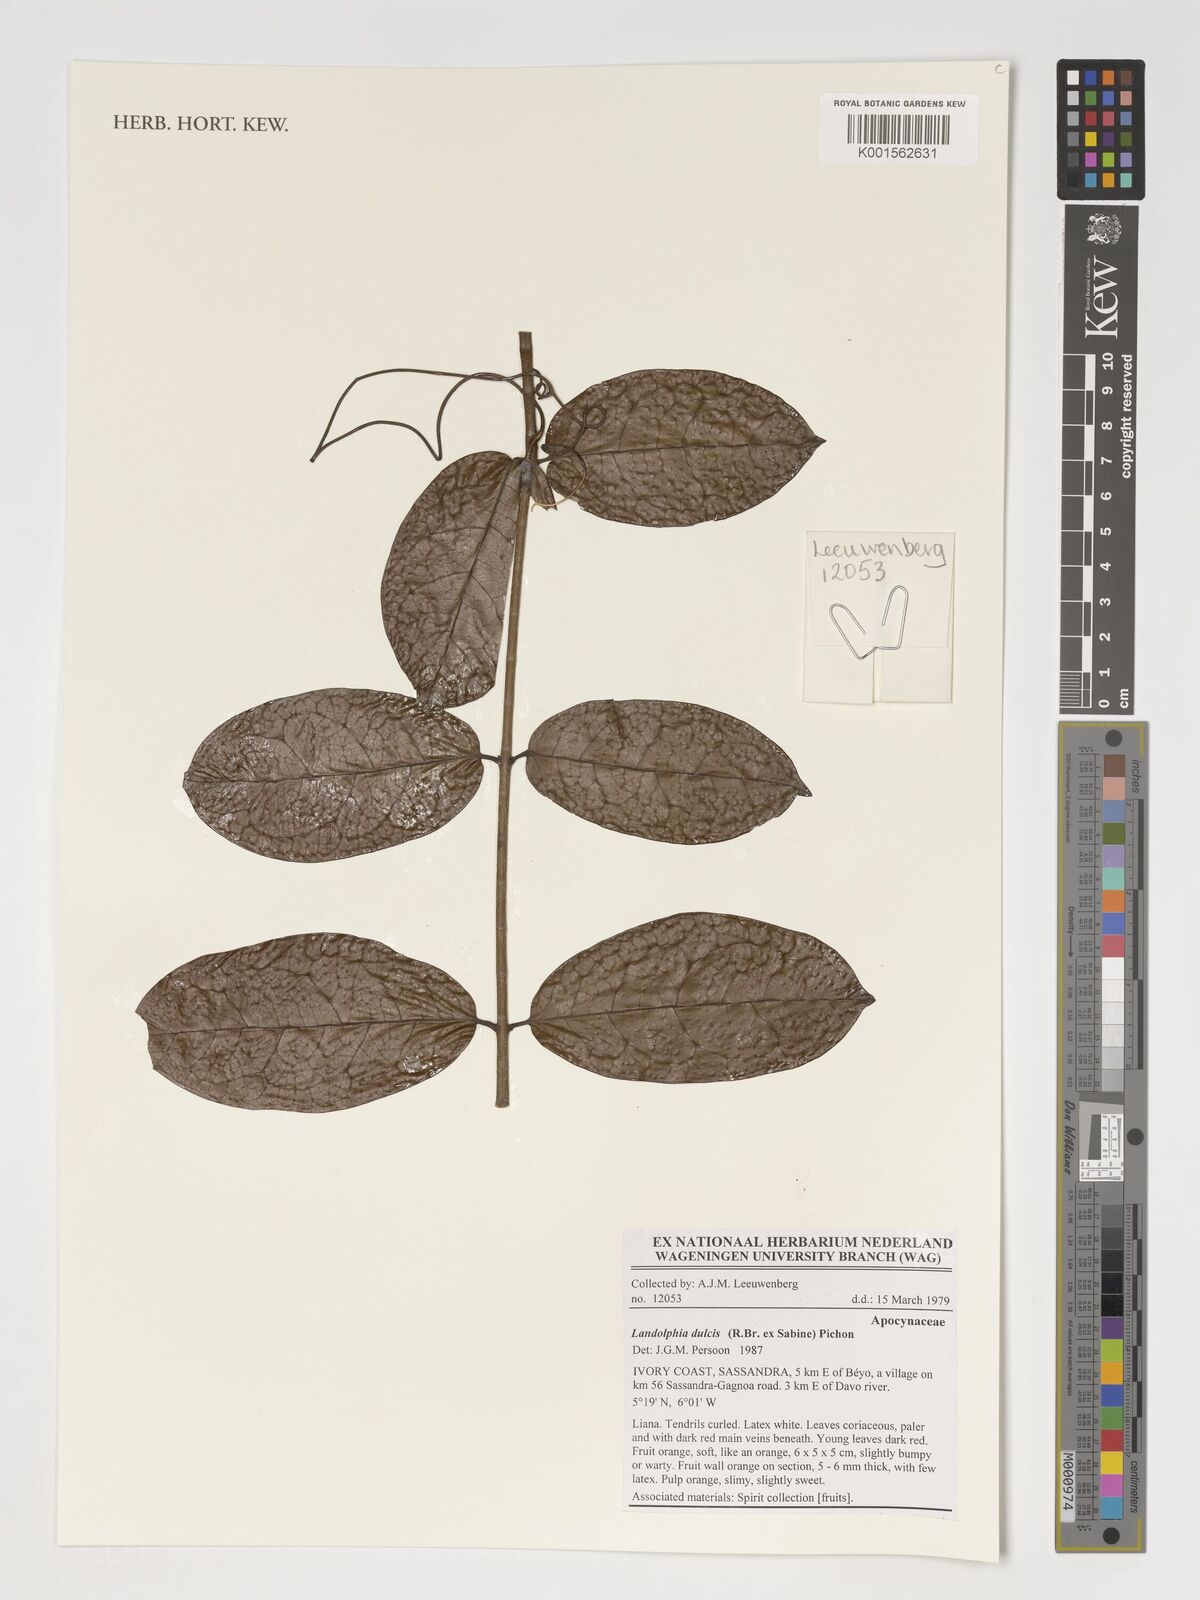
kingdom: Plantae
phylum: Tracheophyta
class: Magnoliopsida
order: Gentianales
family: Apocynaceae
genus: Landolphia
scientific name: Landolphia dulcis
